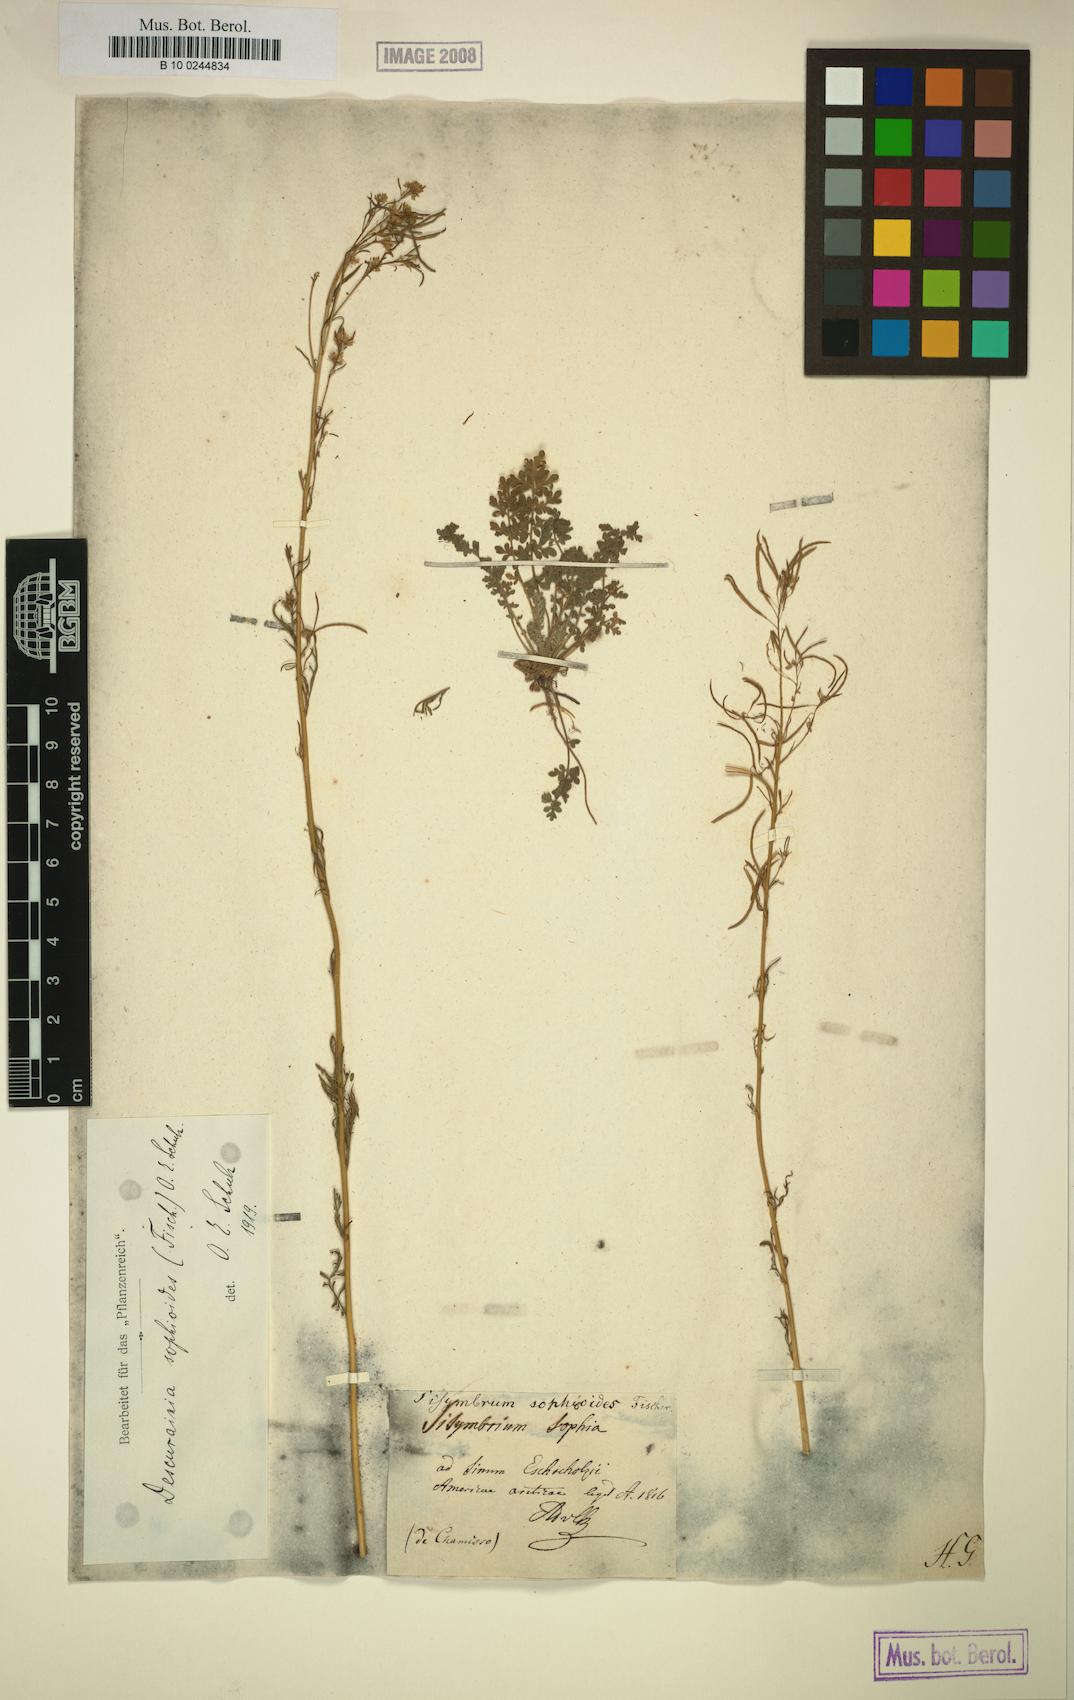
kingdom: Plantae
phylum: Tracheophyta
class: Magnoliopsida
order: Brassicales
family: Brassicaceae
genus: Descurainia
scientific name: Descurainia sophioides
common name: Northern tansy mustard
